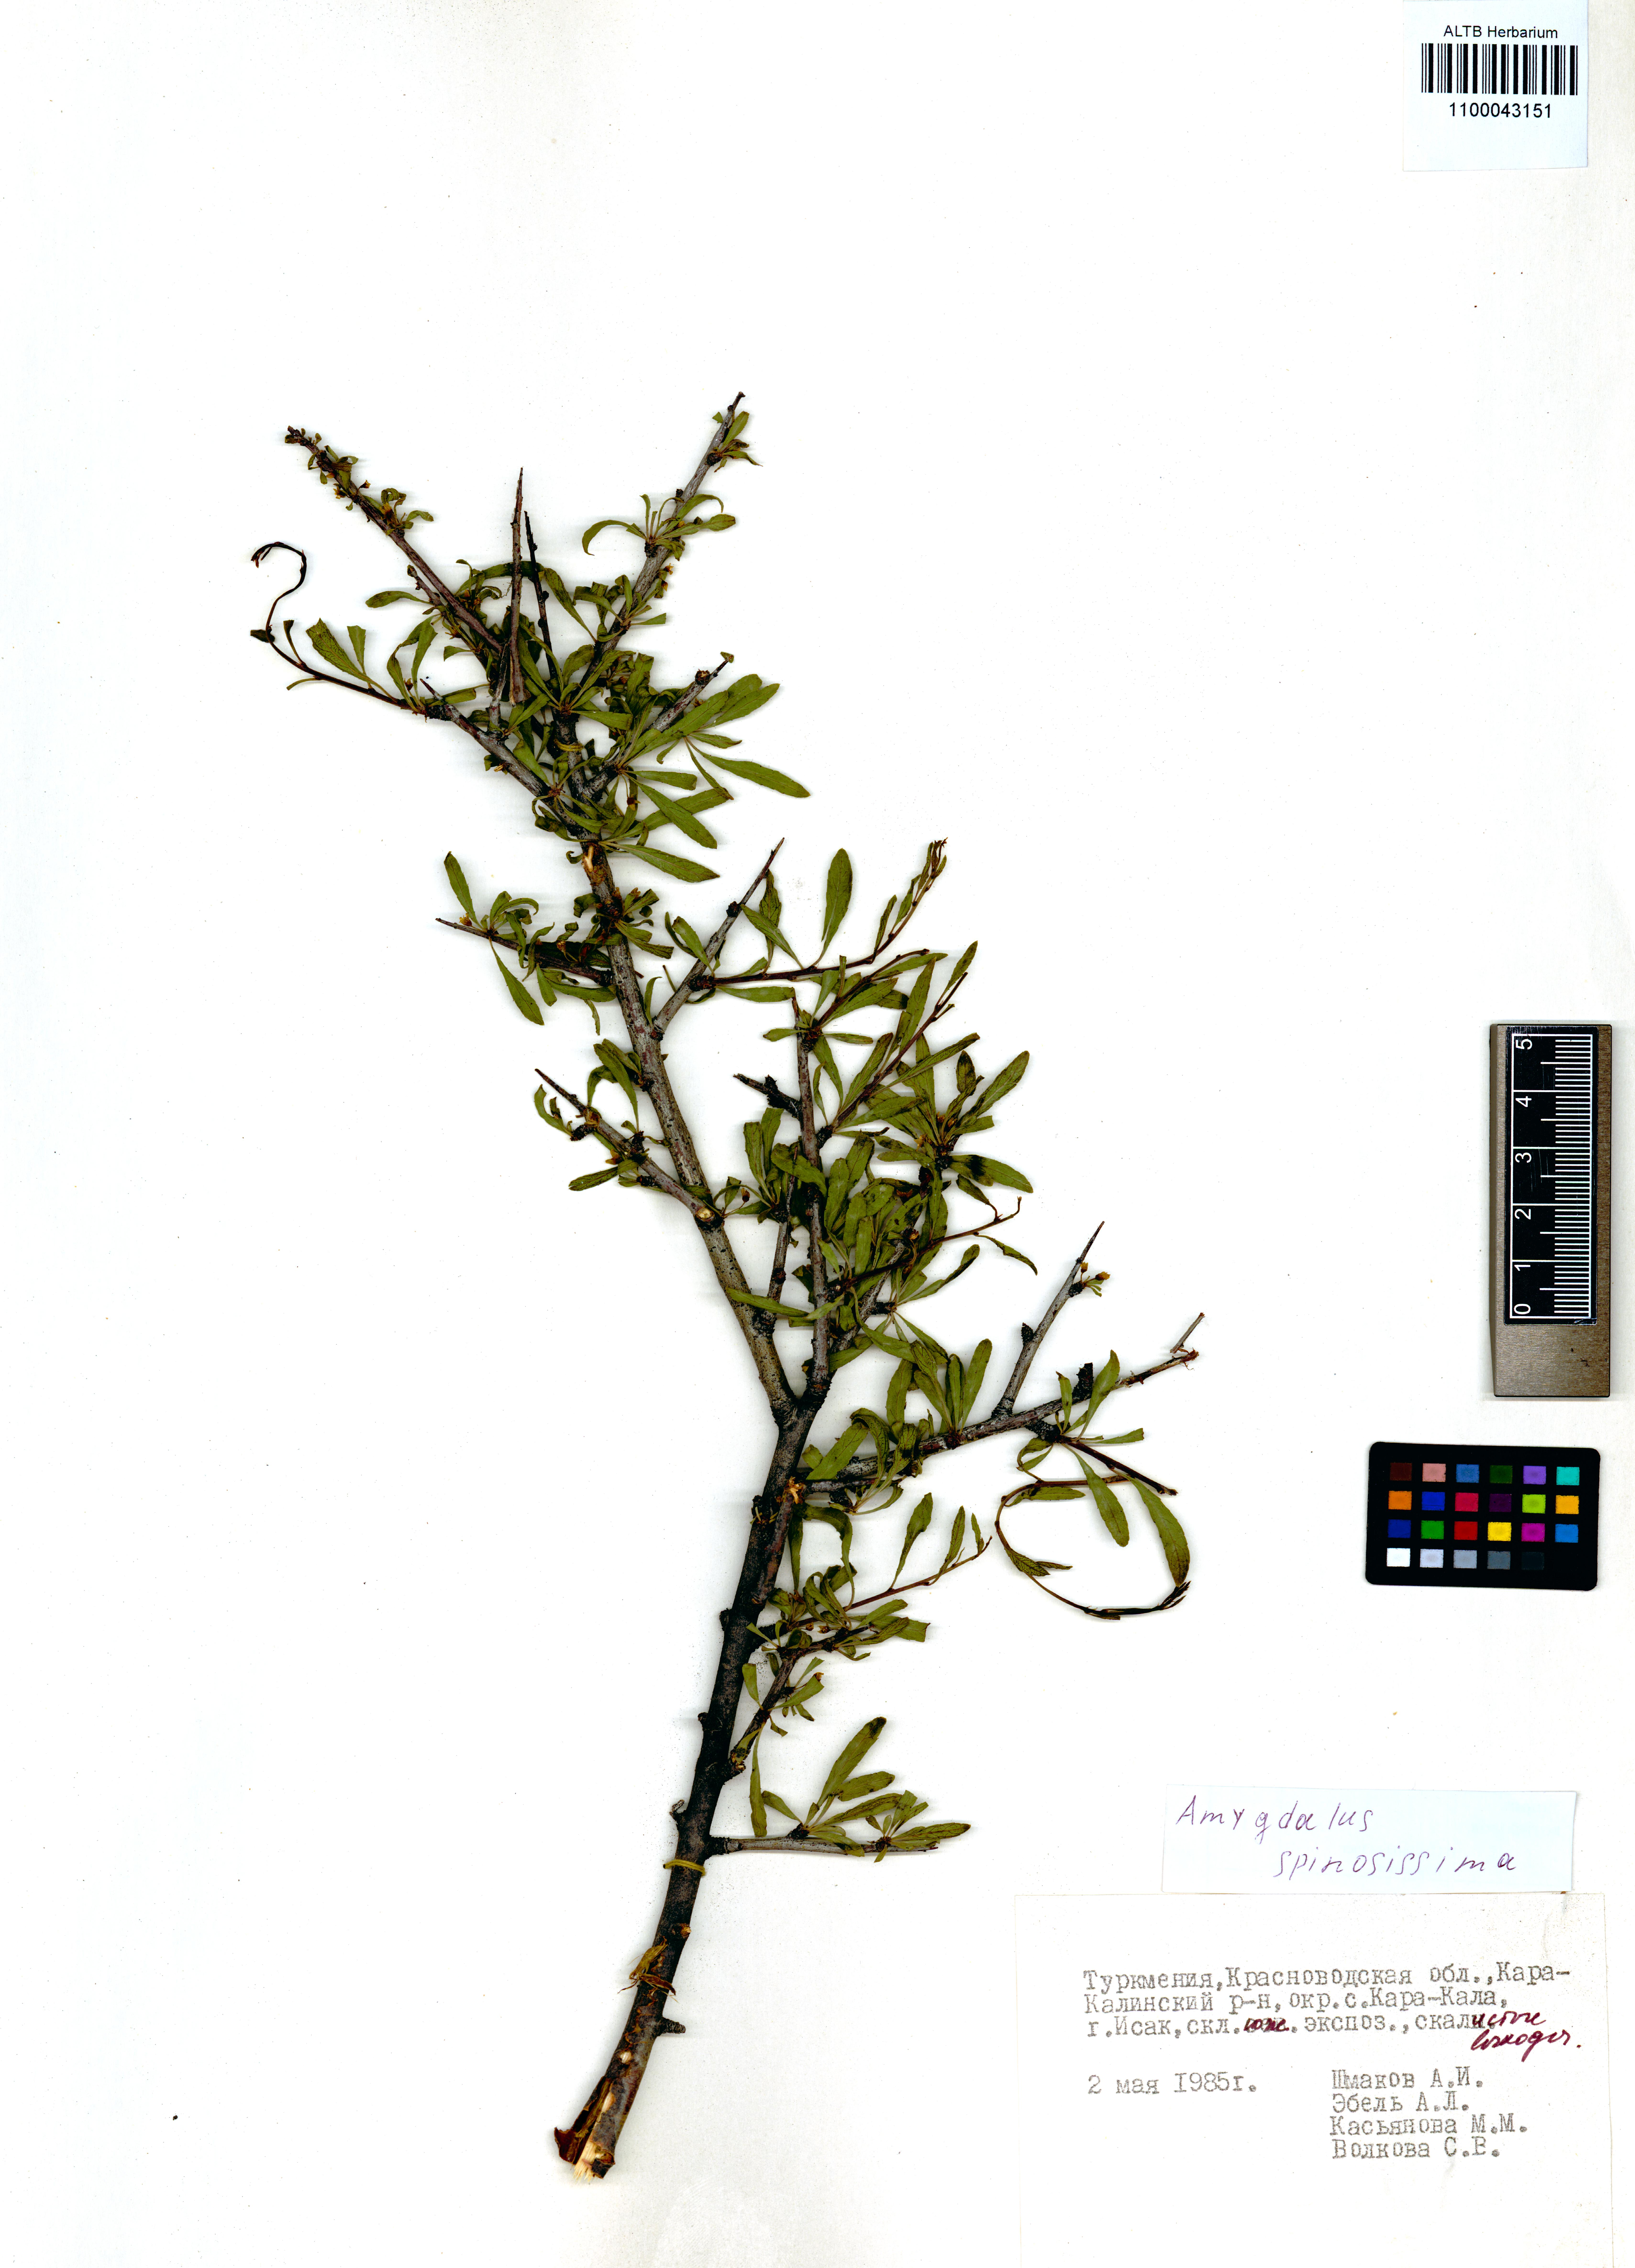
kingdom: Plantae
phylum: Tracheophyta
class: Magnoliopsida
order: Rosales
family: Rosaceae
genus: Prunus
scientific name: Prunus spinosissima
